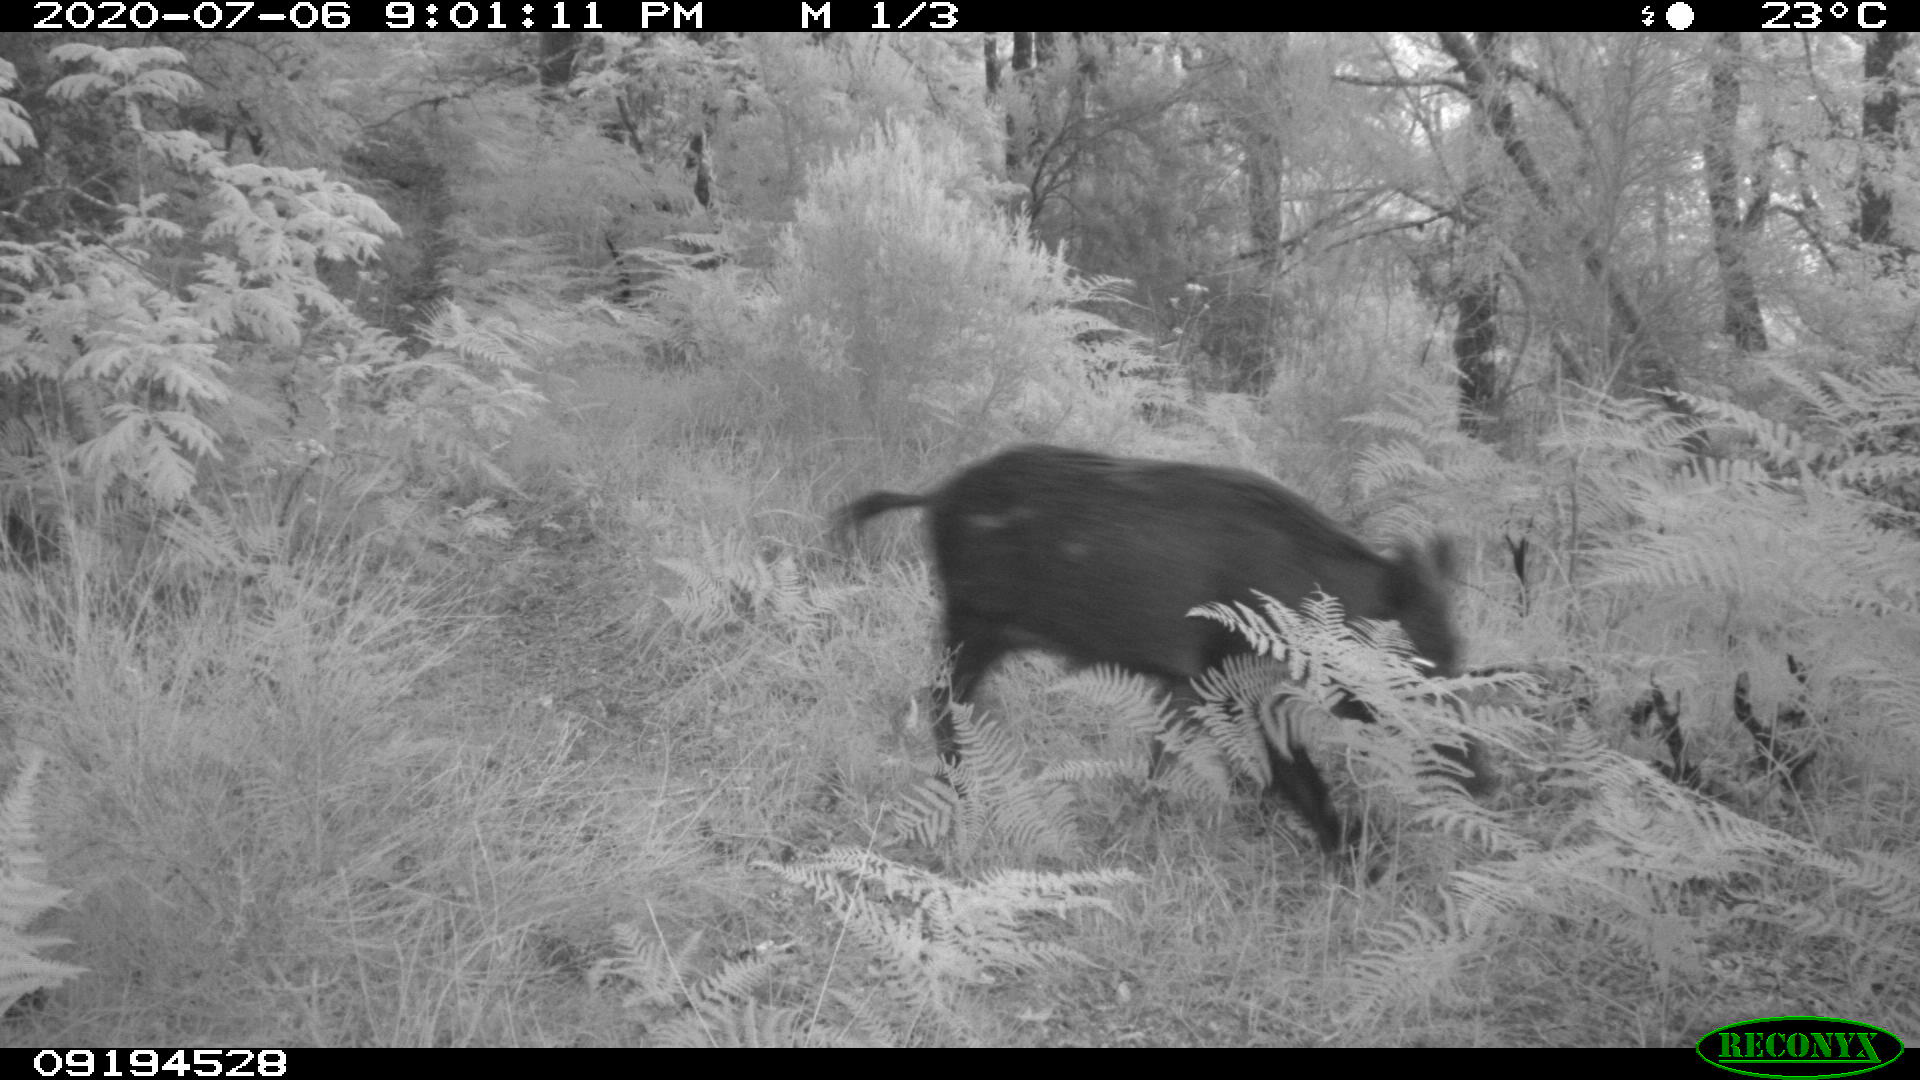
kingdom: Animalia
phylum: Chordata
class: Mammalia
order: Artiodactyla
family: Suidae
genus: Sus
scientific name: Sus scrofa
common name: Wild boar
